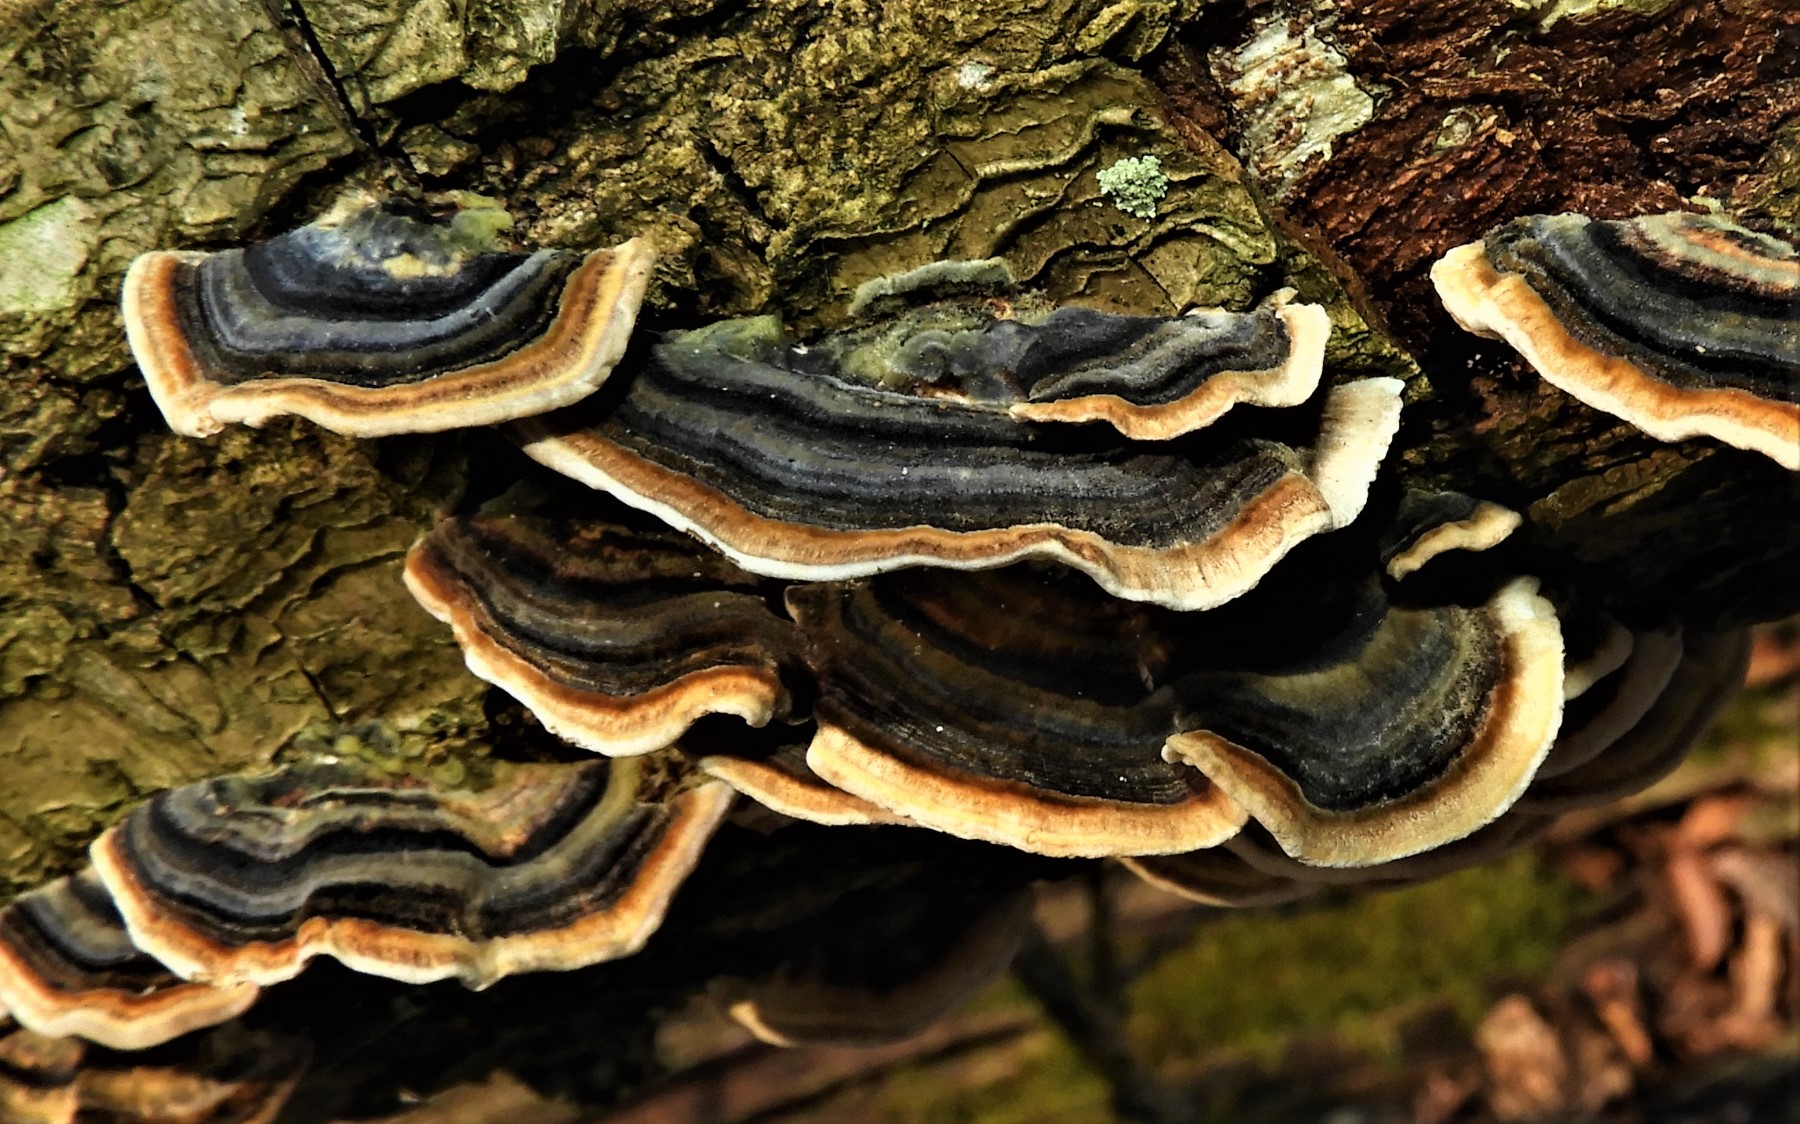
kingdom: Fungi
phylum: Basidiomycota
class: Agaricomycetes
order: Polyporales
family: Polyporaceae
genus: Trametes
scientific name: Trametes versicolor
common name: broget læderporesvamp
